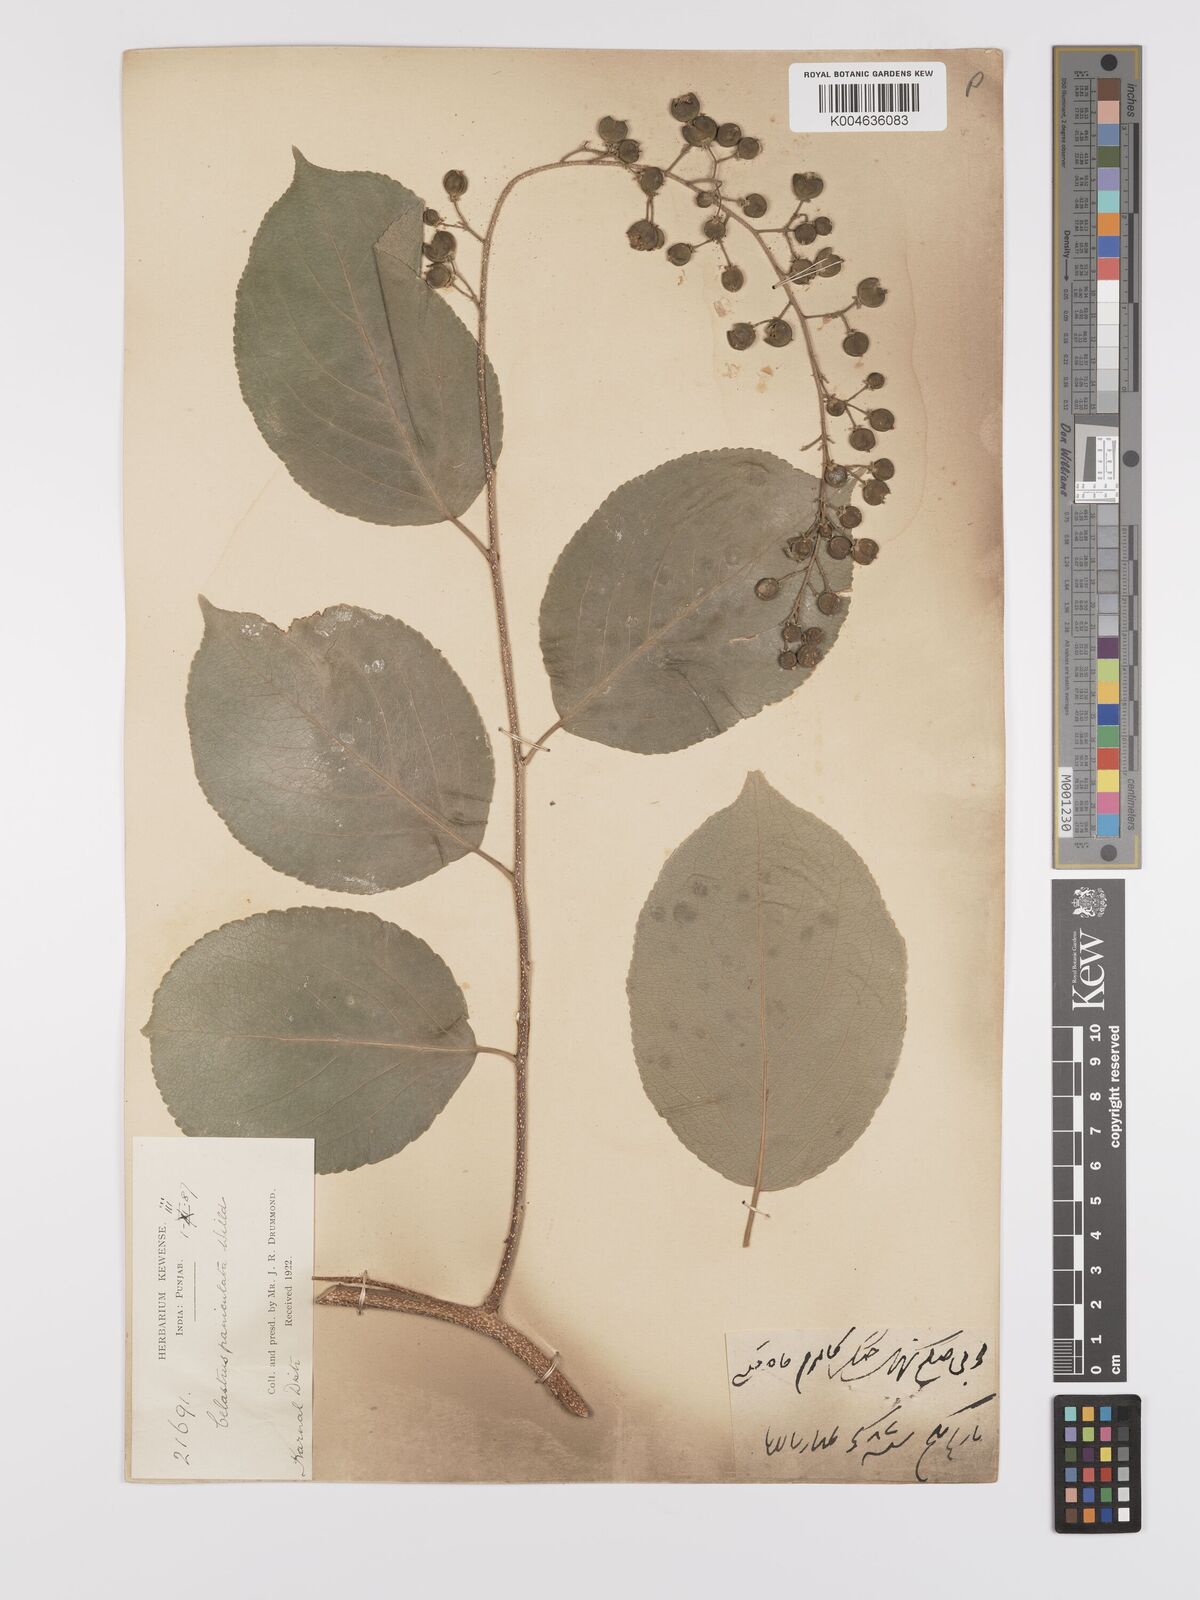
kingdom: Plantae
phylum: Tracheophyta
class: Magnoliopsida
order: Celastrales
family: Celastraceae
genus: Celastrus
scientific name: Celastrus paniculatus
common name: Oriental bittersweet; staff vine
